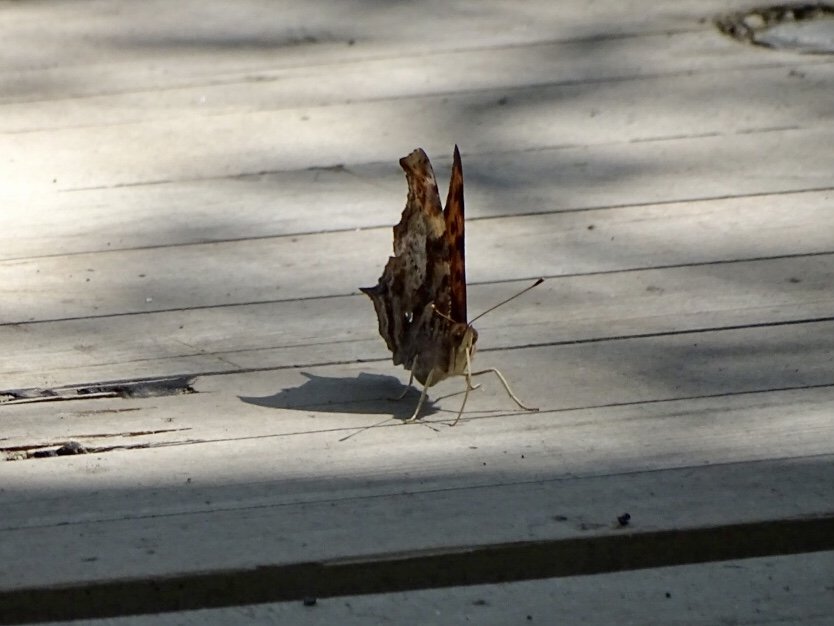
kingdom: Animalia
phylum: Arthropoda
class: Insecta
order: Lepidoptera
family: Nymphalidae
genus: Polygonia
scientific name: Polygonia interrogationis
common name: Question Mark
